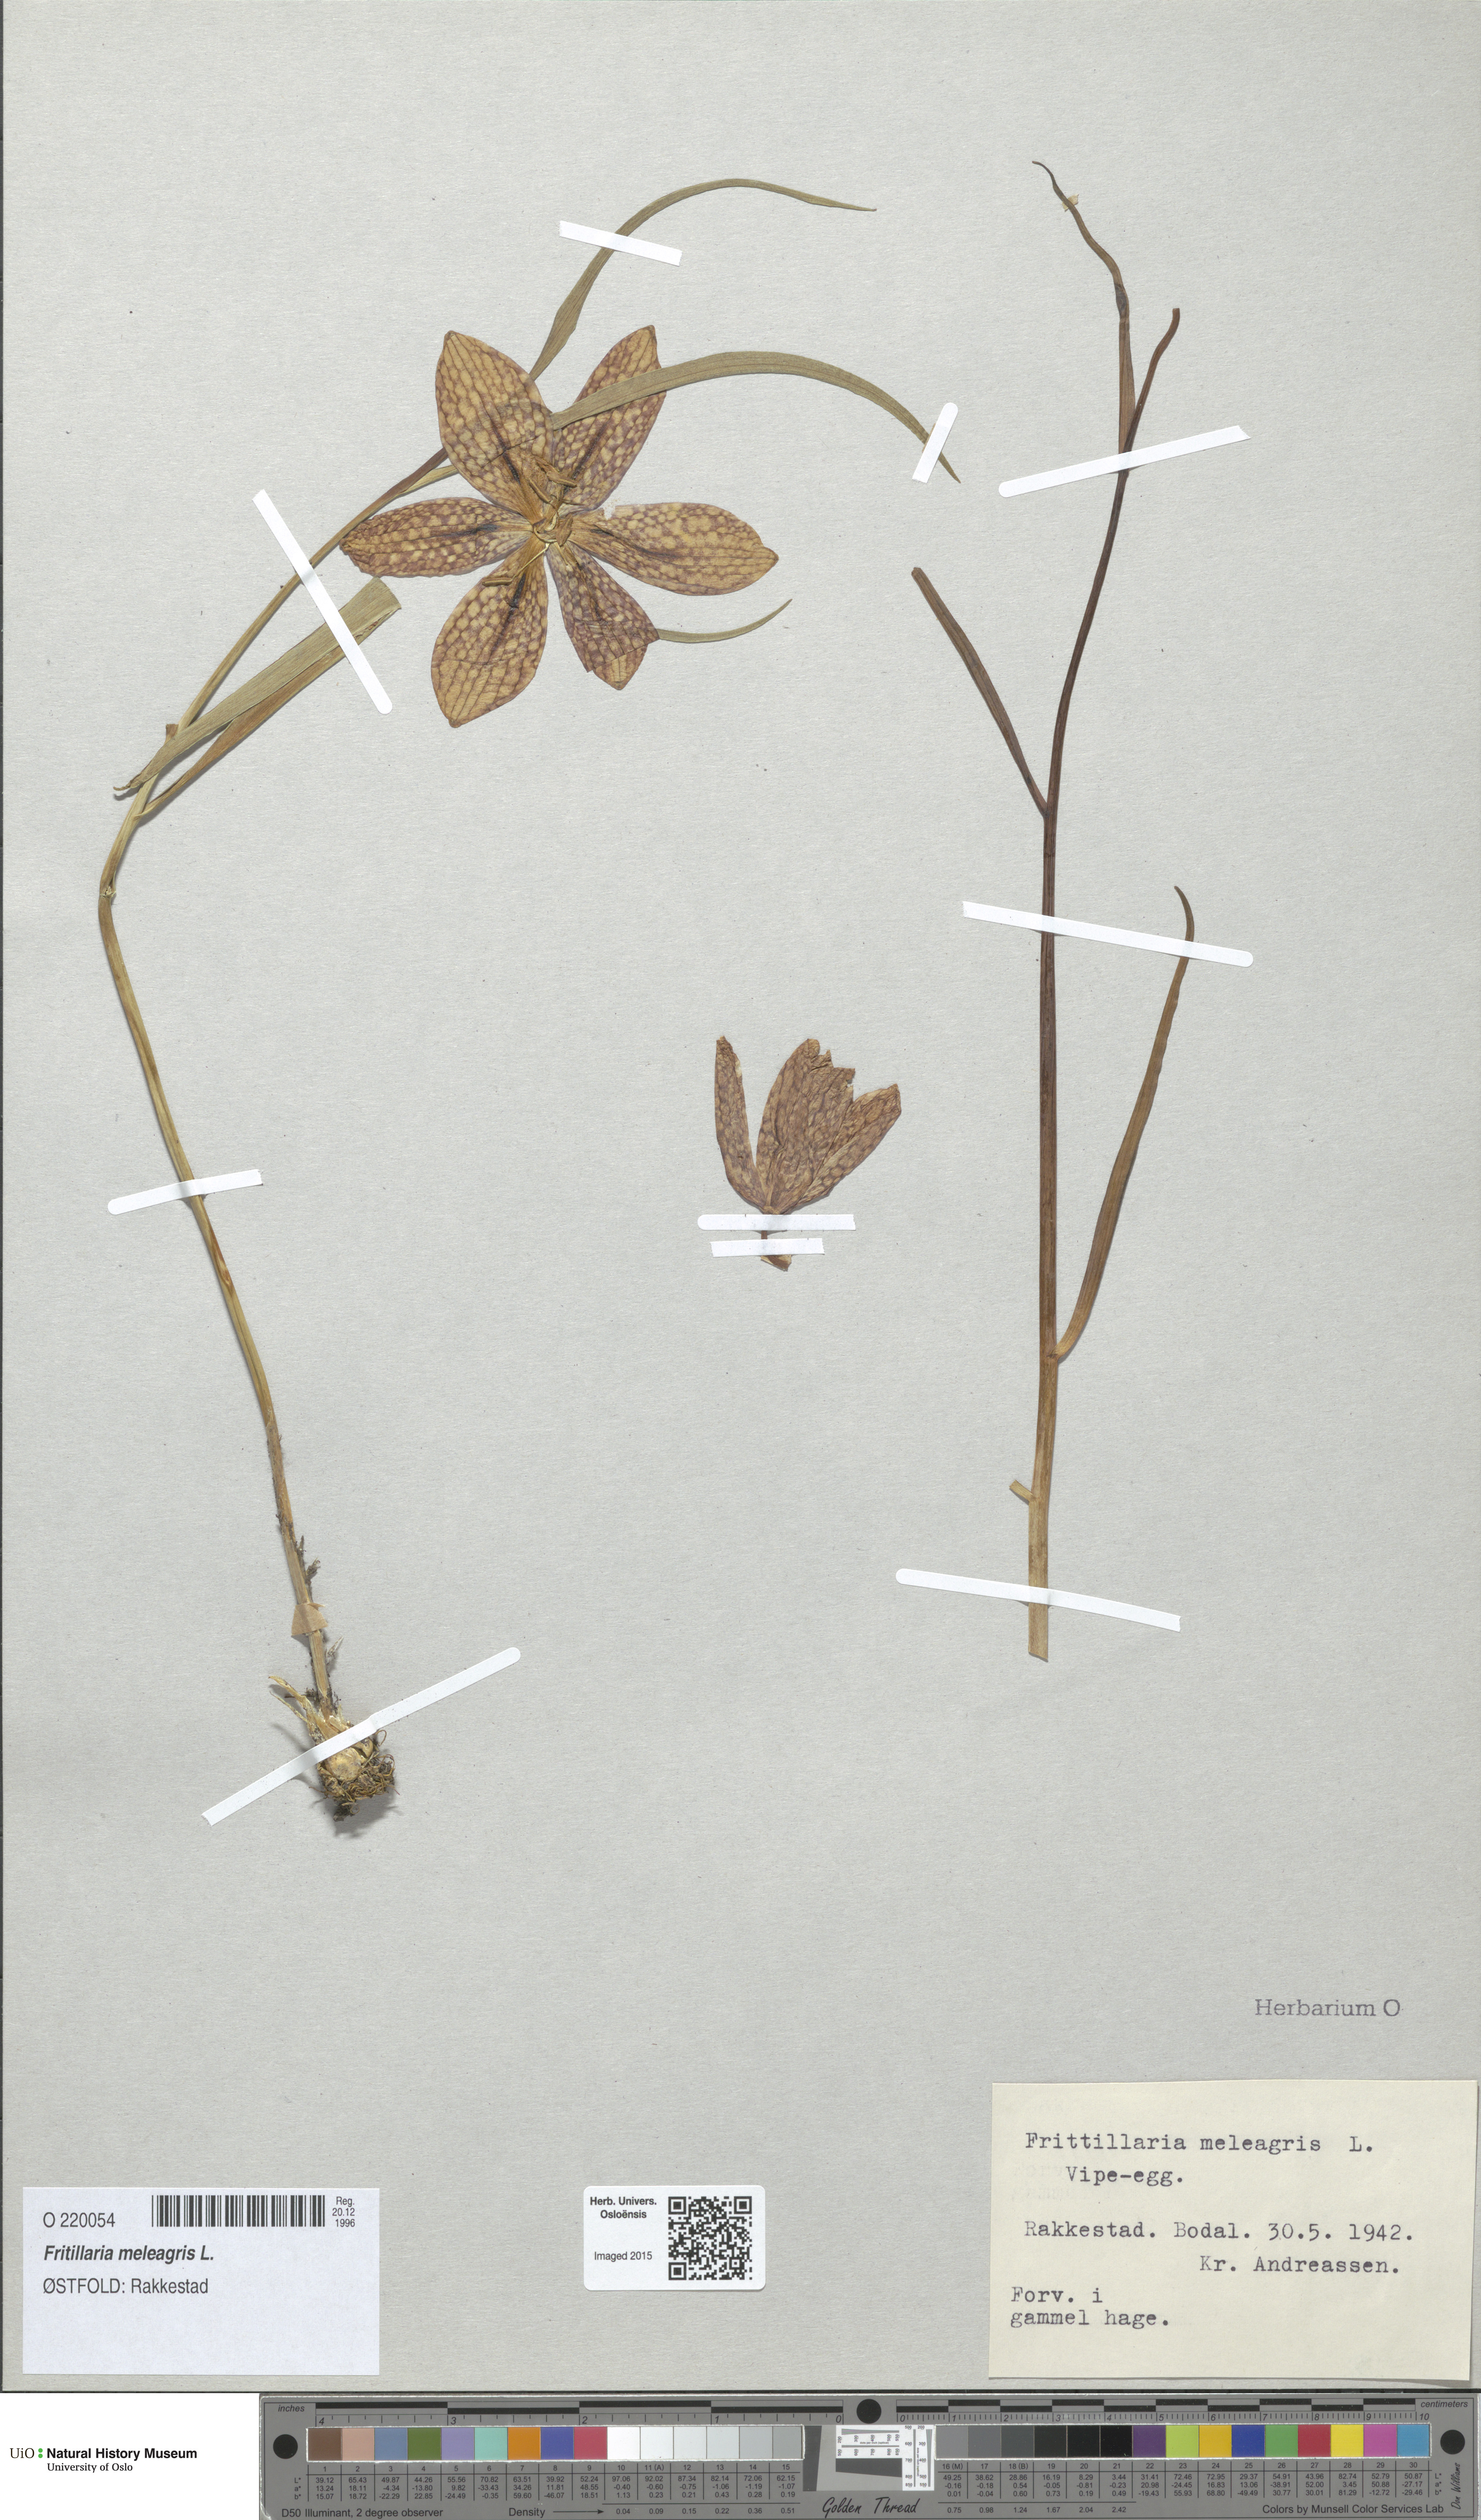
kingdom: Plantae
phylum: Tracheophyta
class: Liliopsida
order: Liliales
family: Liliaceae
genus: Fritillaria
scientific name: Fritillaria meleagris
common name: Fritillary
